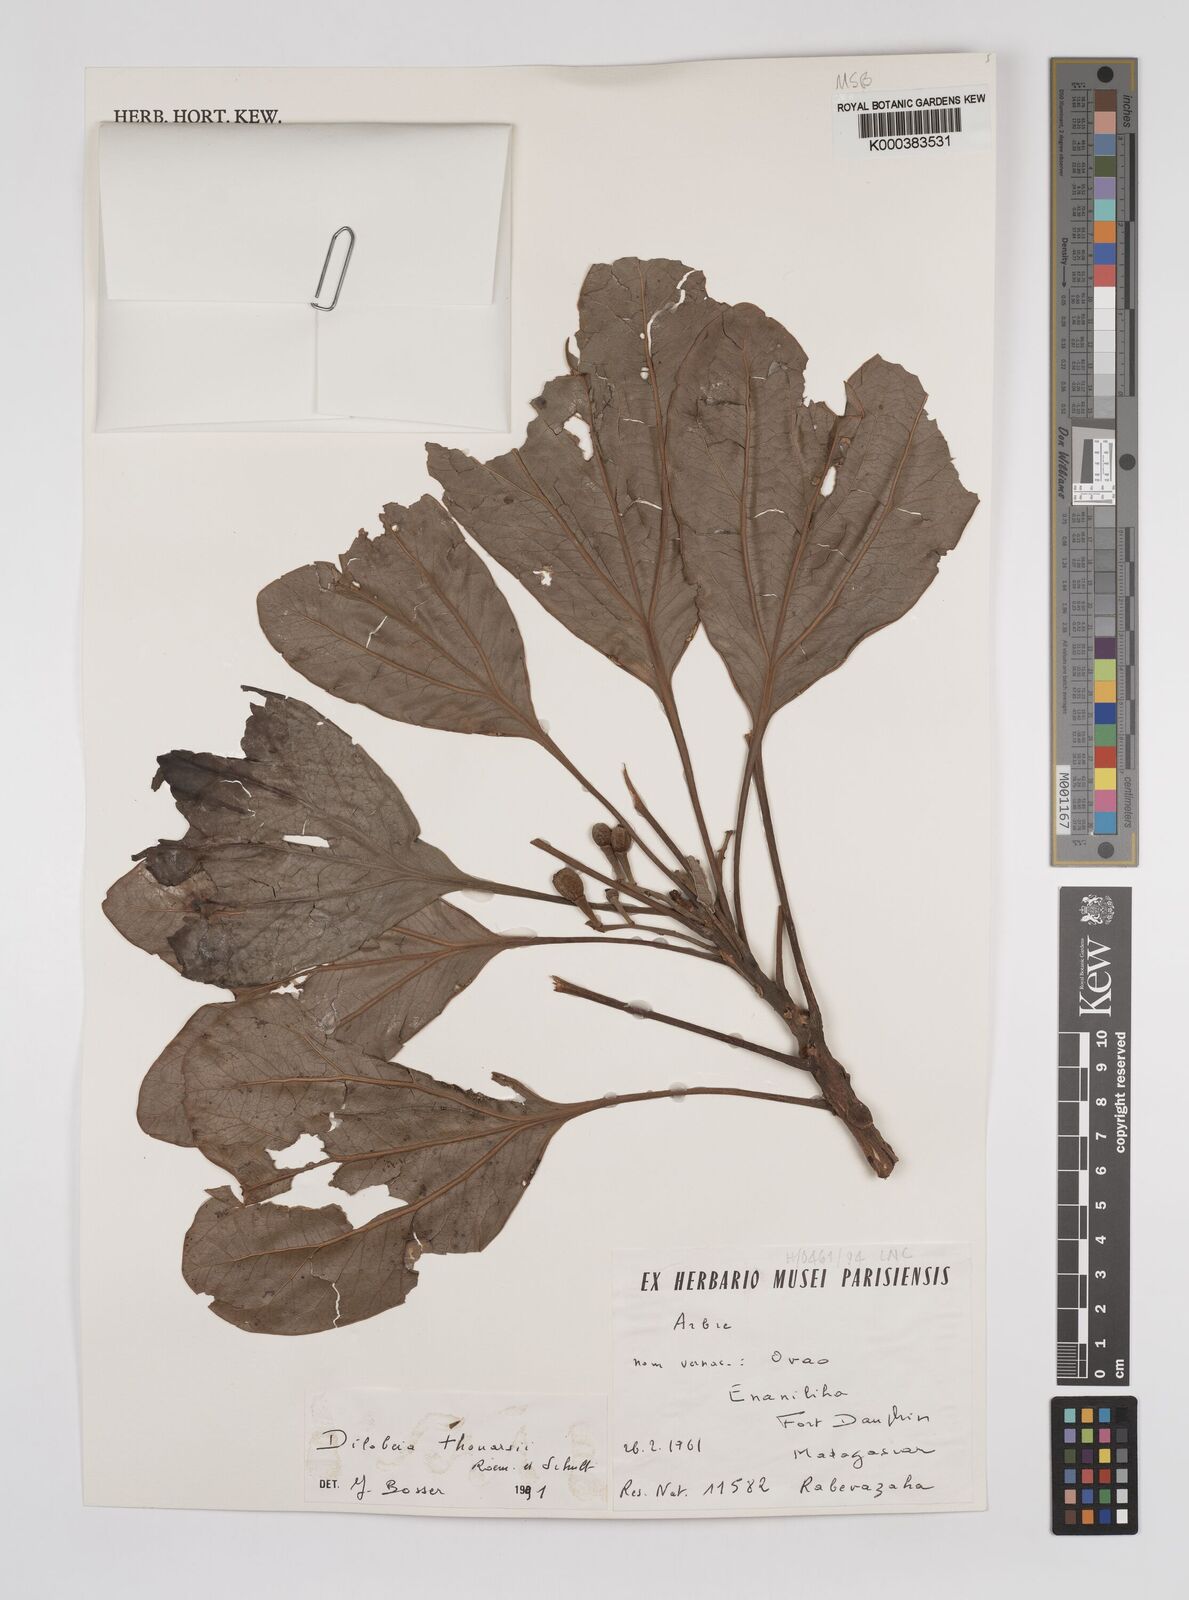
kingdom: Plantae
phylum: Tracheophyta
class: Magnoliopsida
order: Proteales
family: Proteaceae
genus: Dilobeia
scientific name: Dilobeia thouarsii
